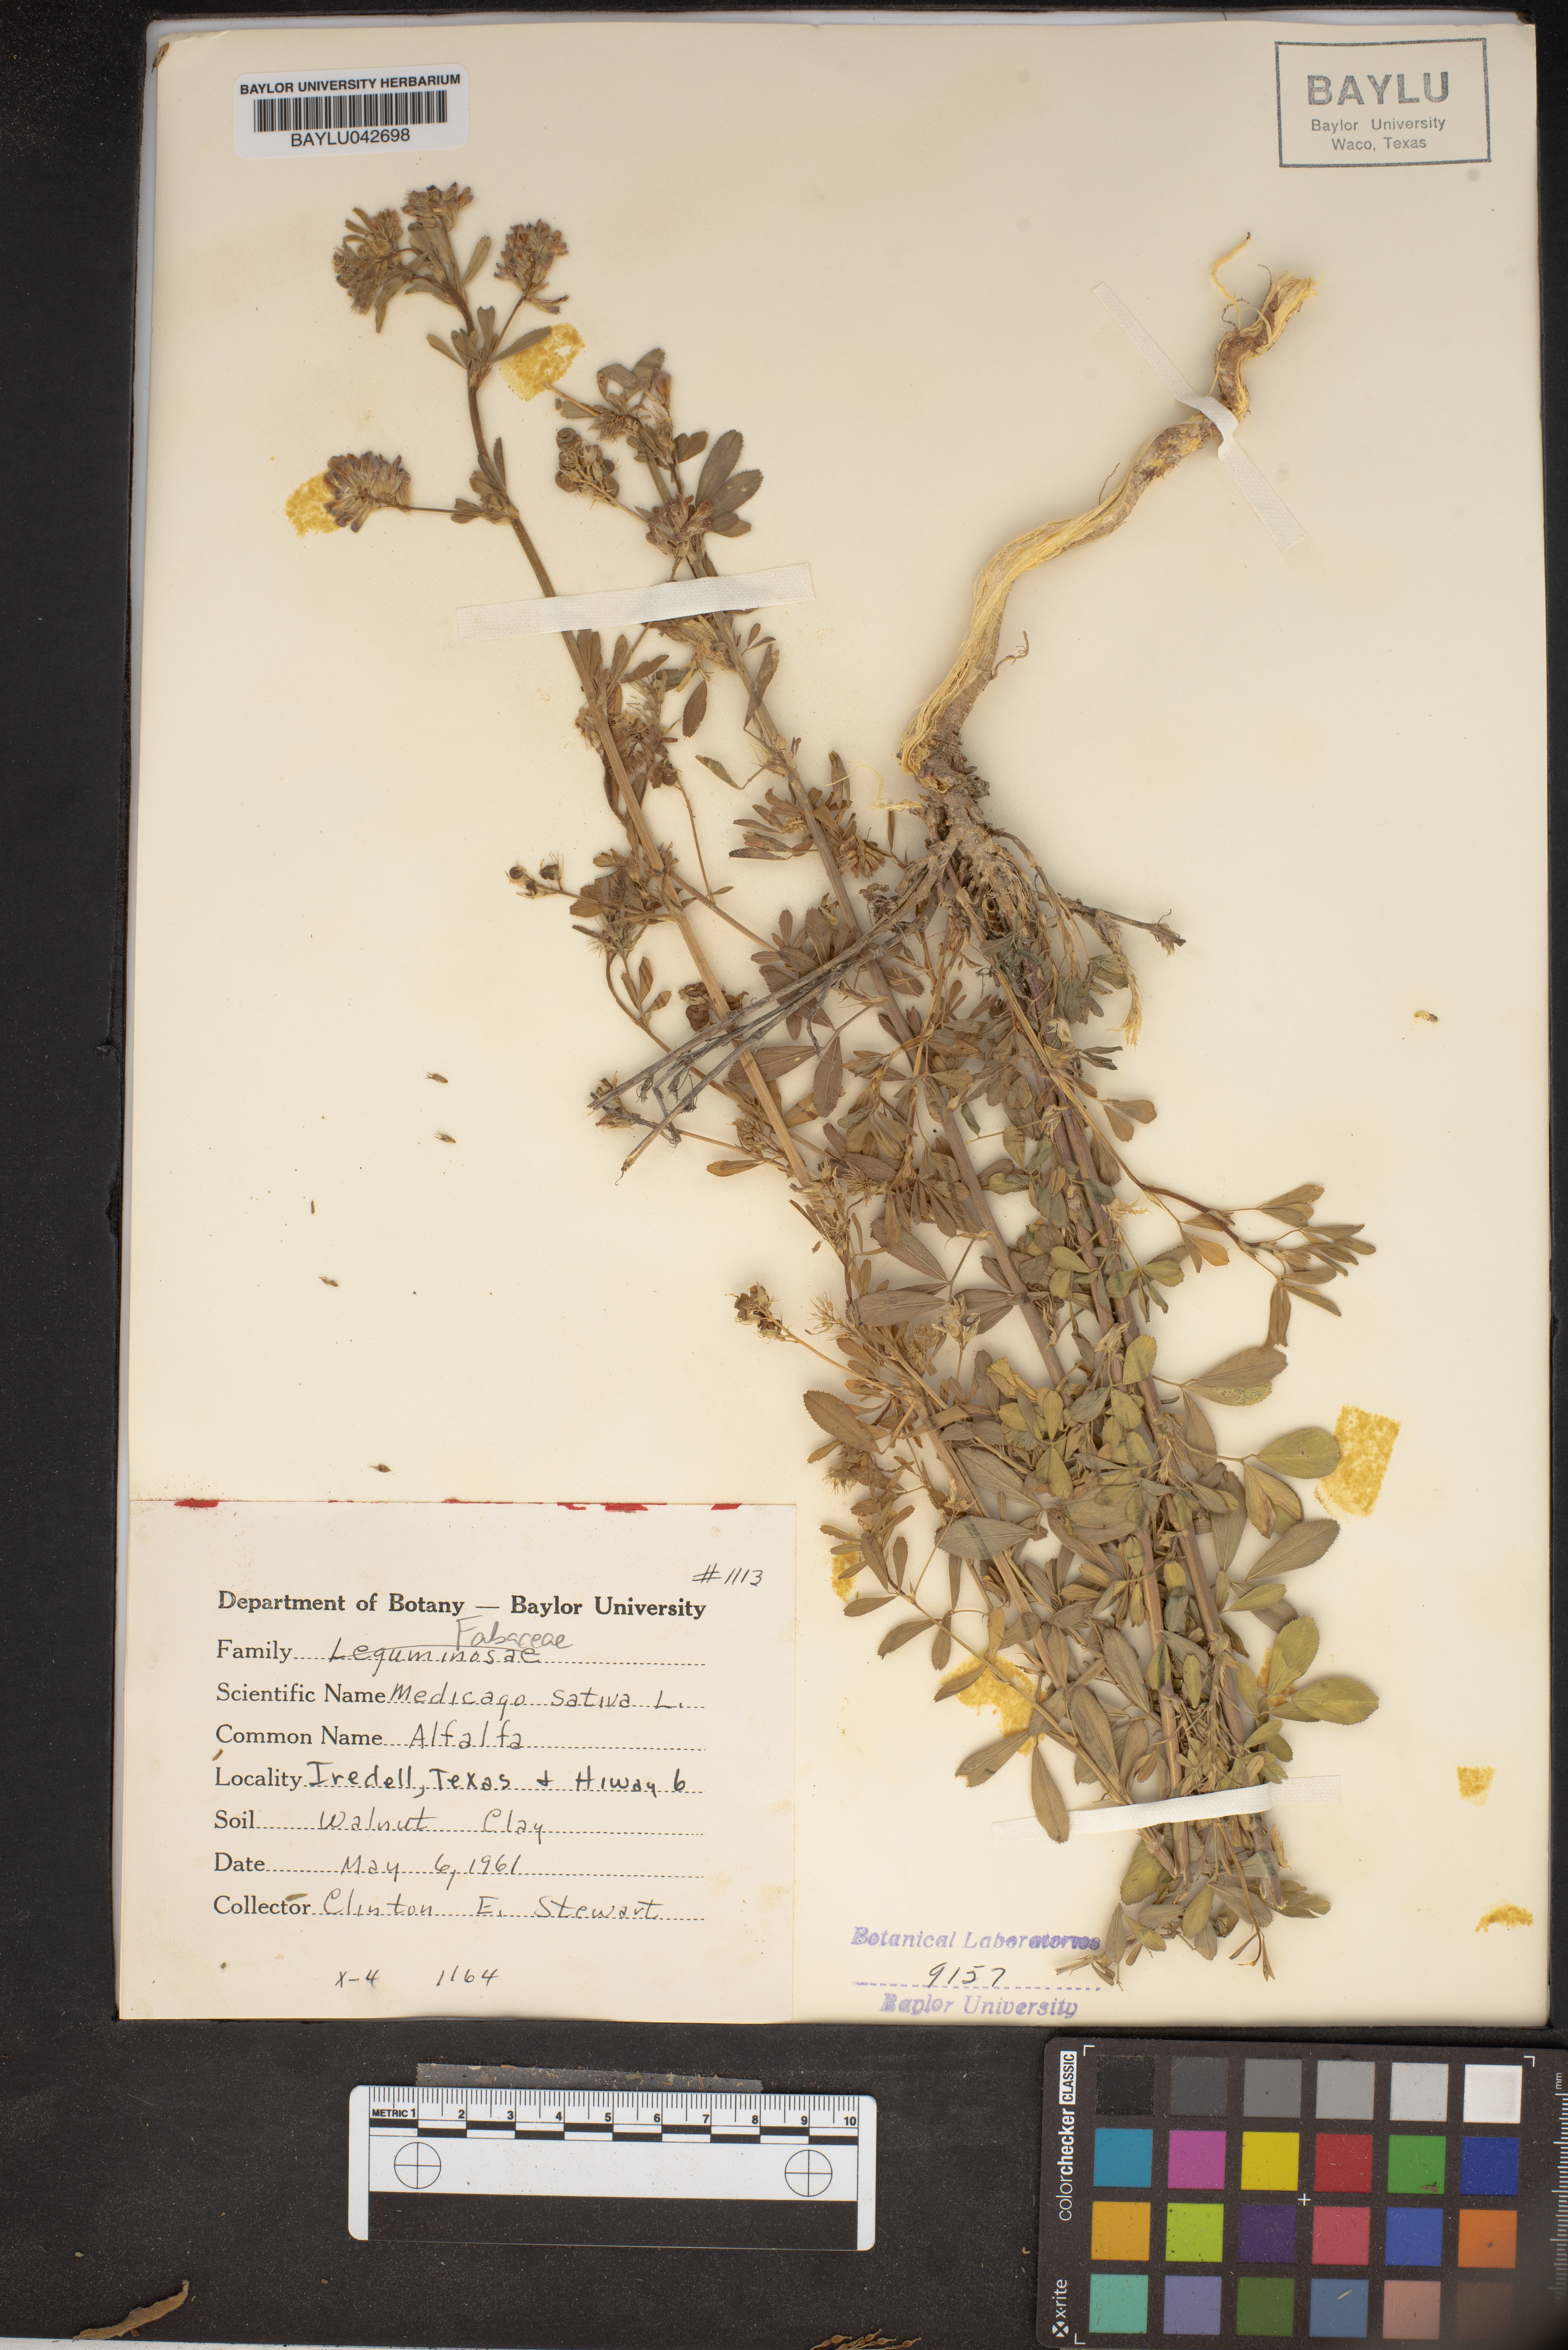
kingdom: Plantae
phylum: Tracheophyta
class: Magnoliopsida
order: Fabales
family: Fabaceae
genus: Medicago
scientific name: Medicago sativa
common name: Alfalfa
